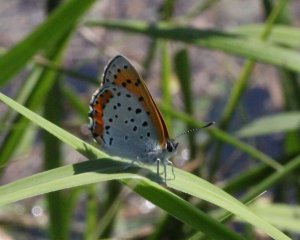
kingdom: Animalia
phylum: Arthropoda
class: Insecta
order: Lepidoptera
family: Sesiidae
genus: Sesia
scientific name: Sesia Lycaena hyllus
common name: Bronze Copper
